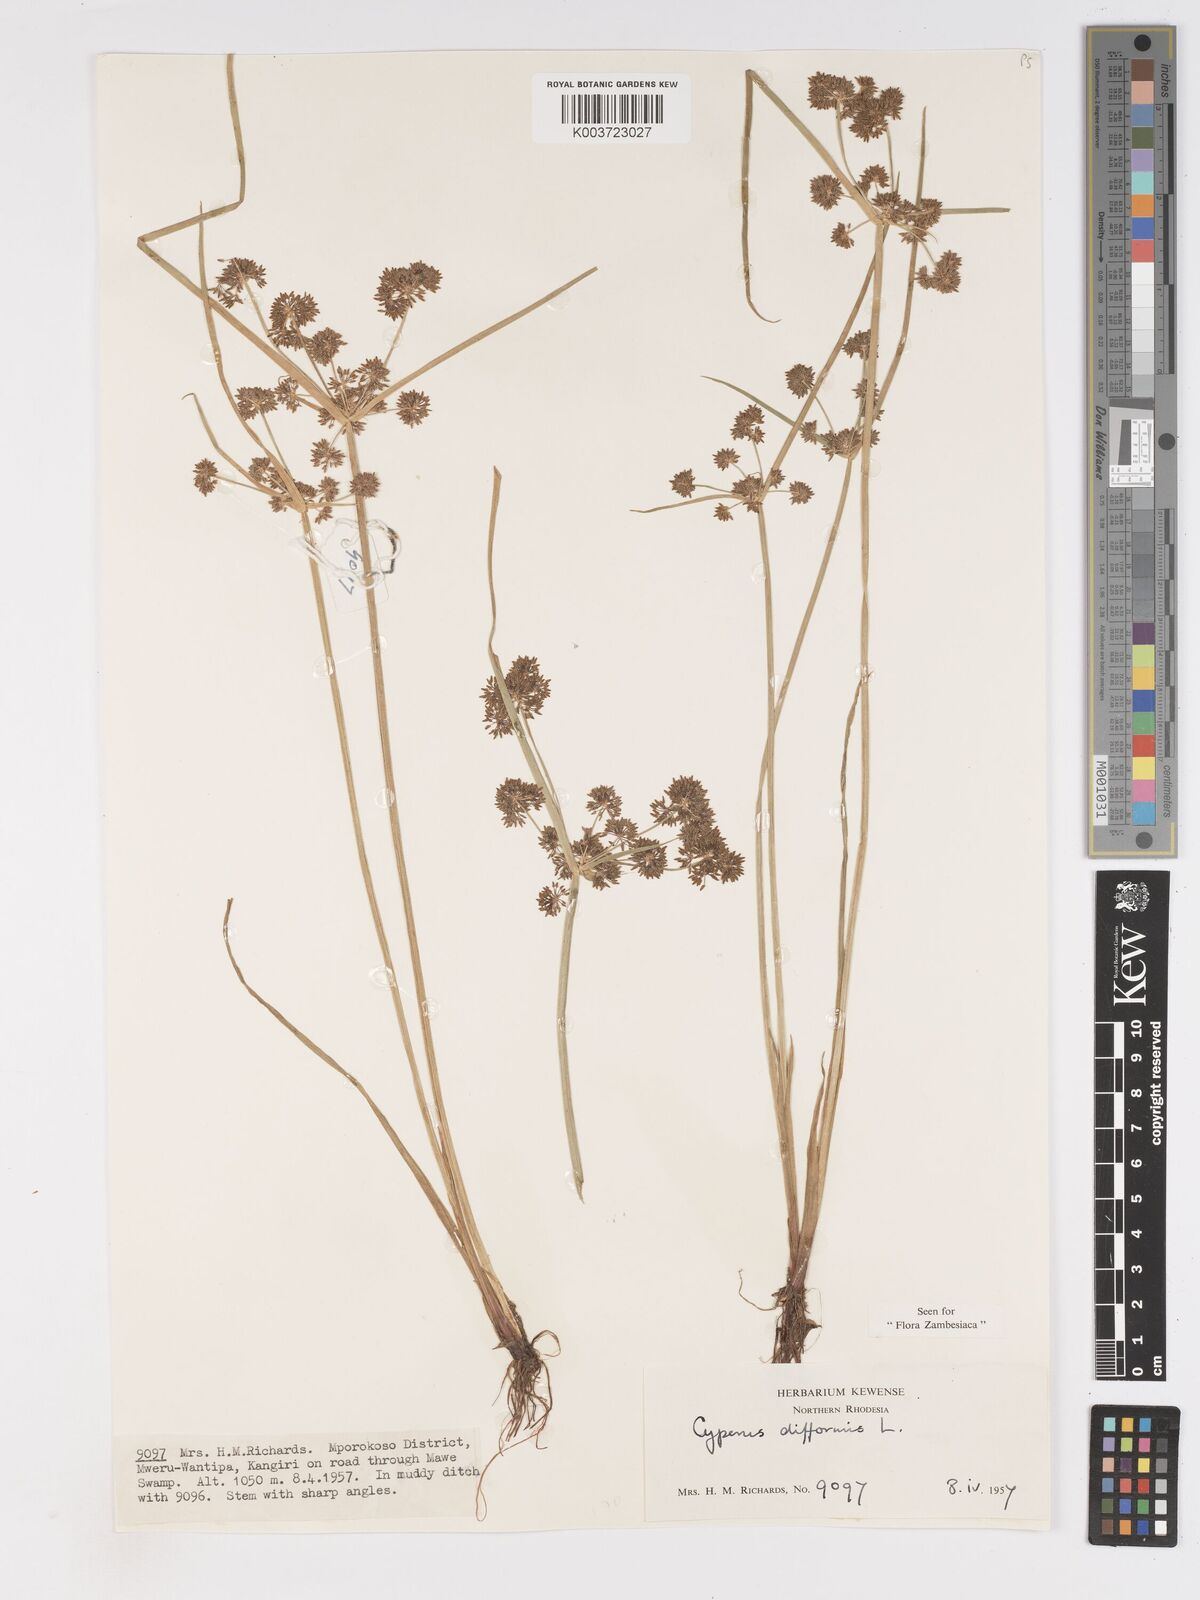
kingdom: Plantae
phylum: Tracheophyta
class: Liliopsida
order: Poales
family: Cyperaceae
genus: Cyperus
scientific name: Cyperus difformis
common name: Variable flatsedge
